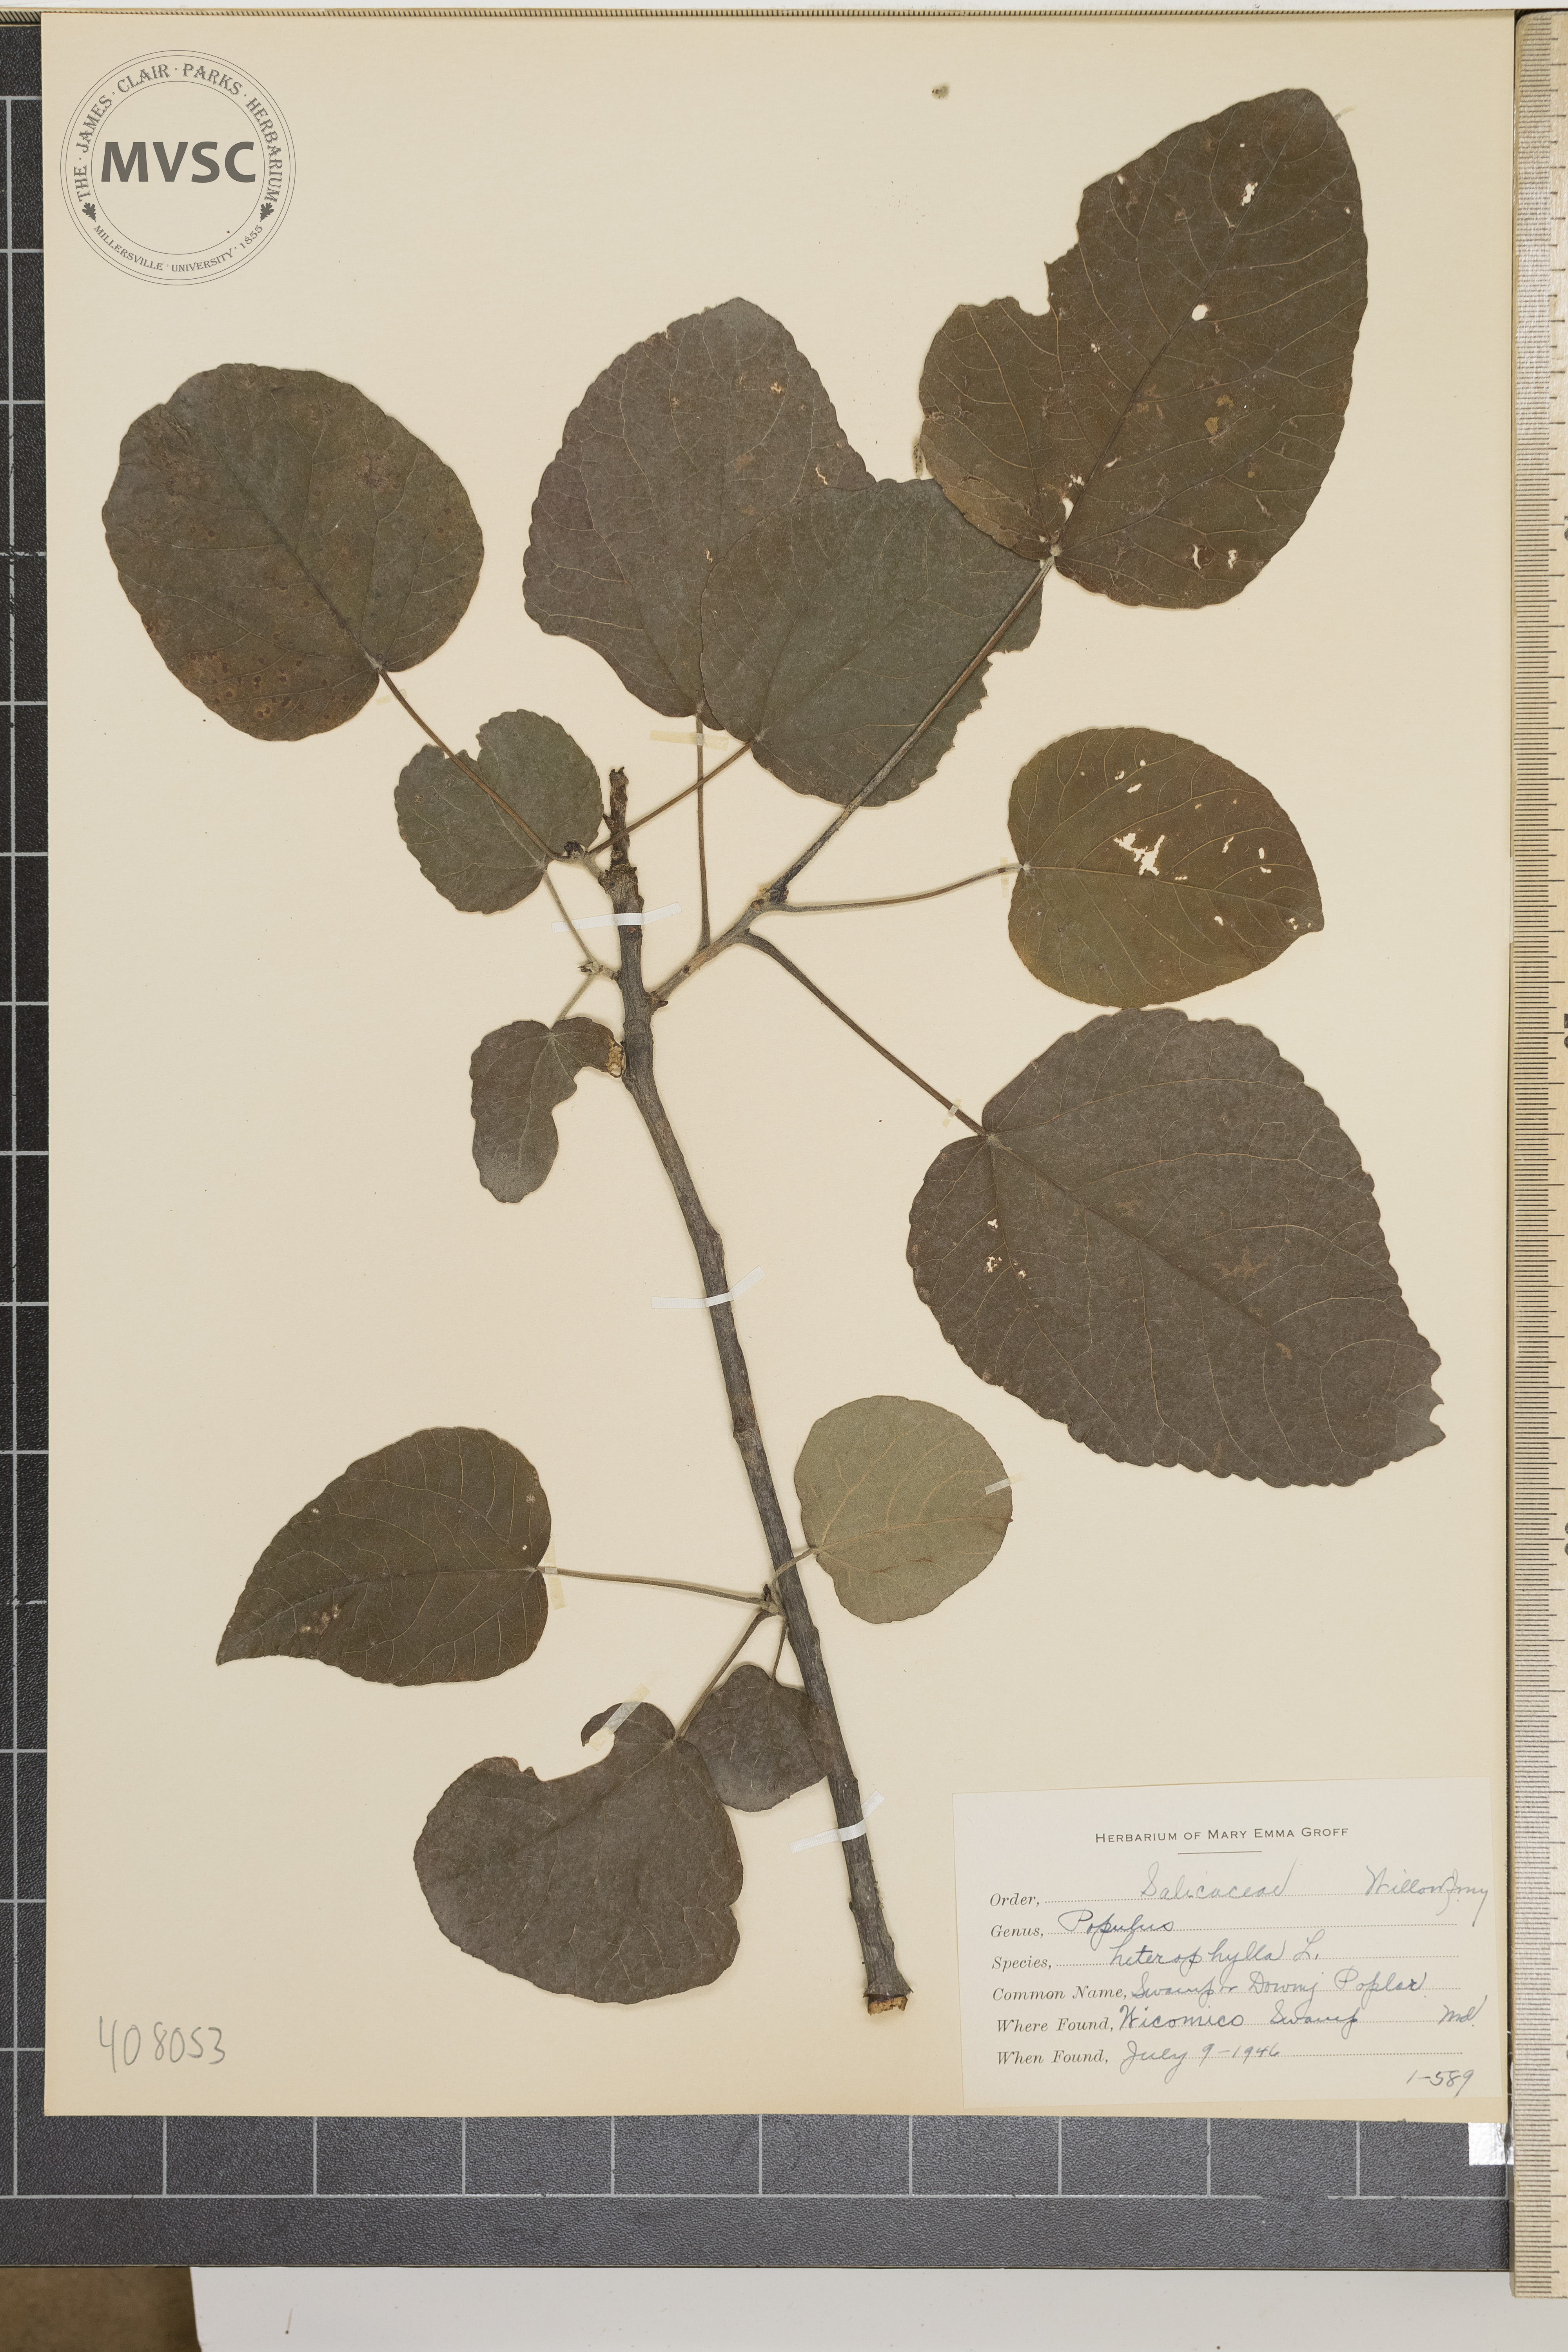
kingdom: Plantae
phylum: Tracheophyta
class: Magnoliopsida
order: Malpighiales
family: Salicaceae
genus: Populus
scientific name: Populus heterophylla
